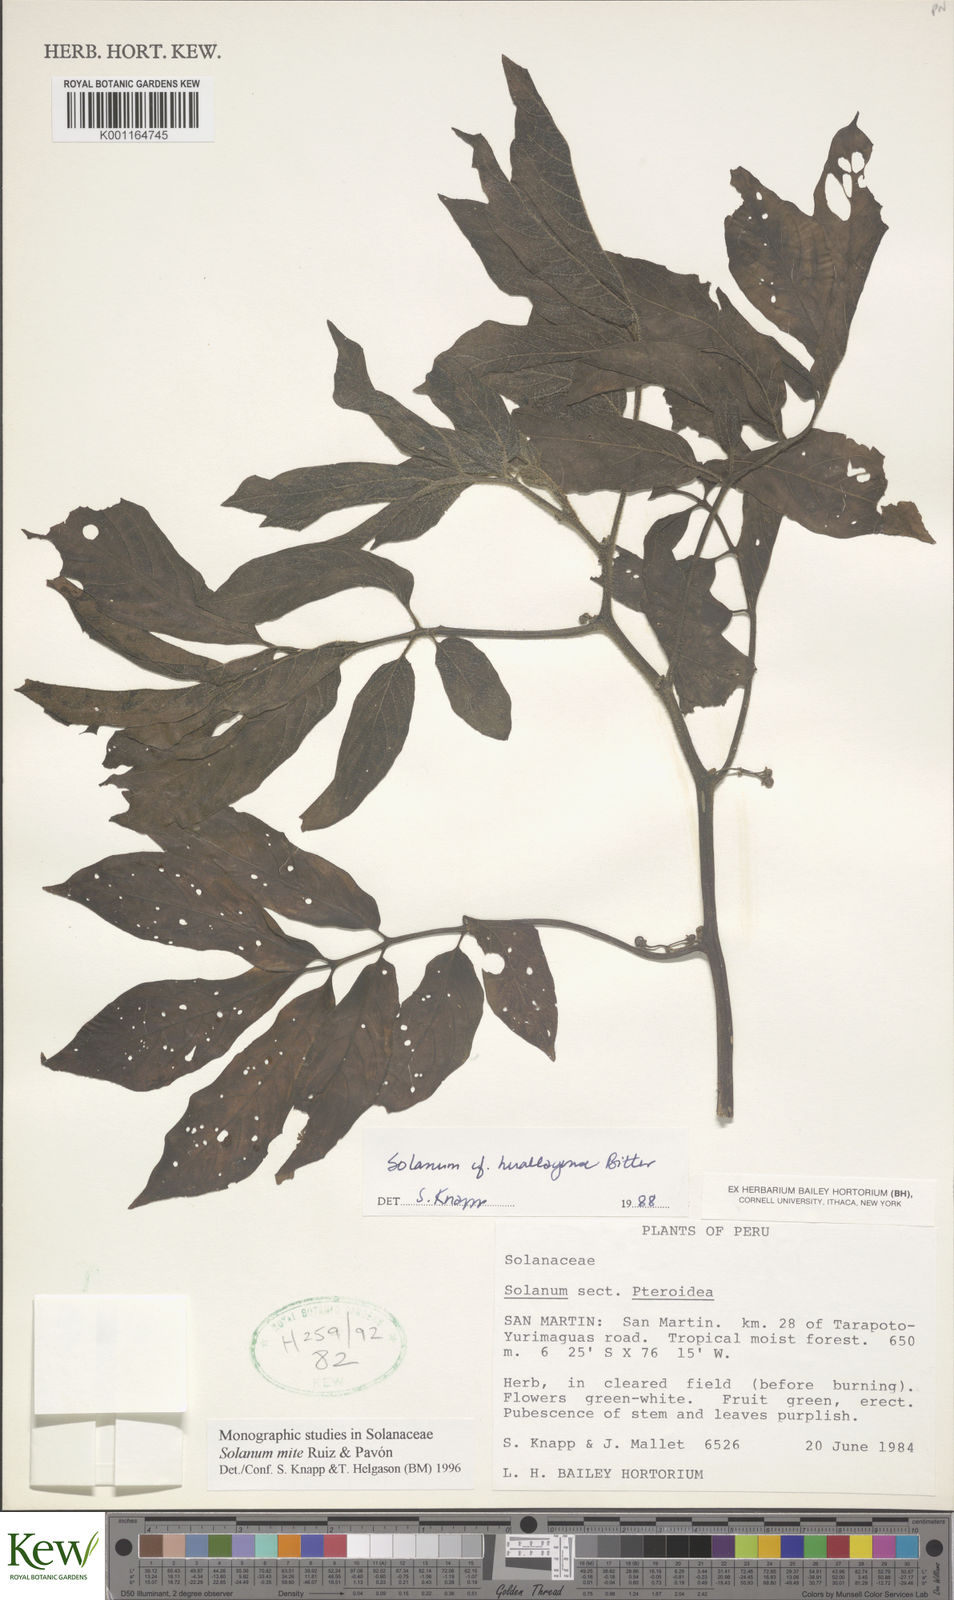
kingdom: Plantae
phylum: Tracheophyta
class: Magnoliopsida
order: Solanales
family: Solanaceae
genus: Solanum
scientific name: Solanum mite
